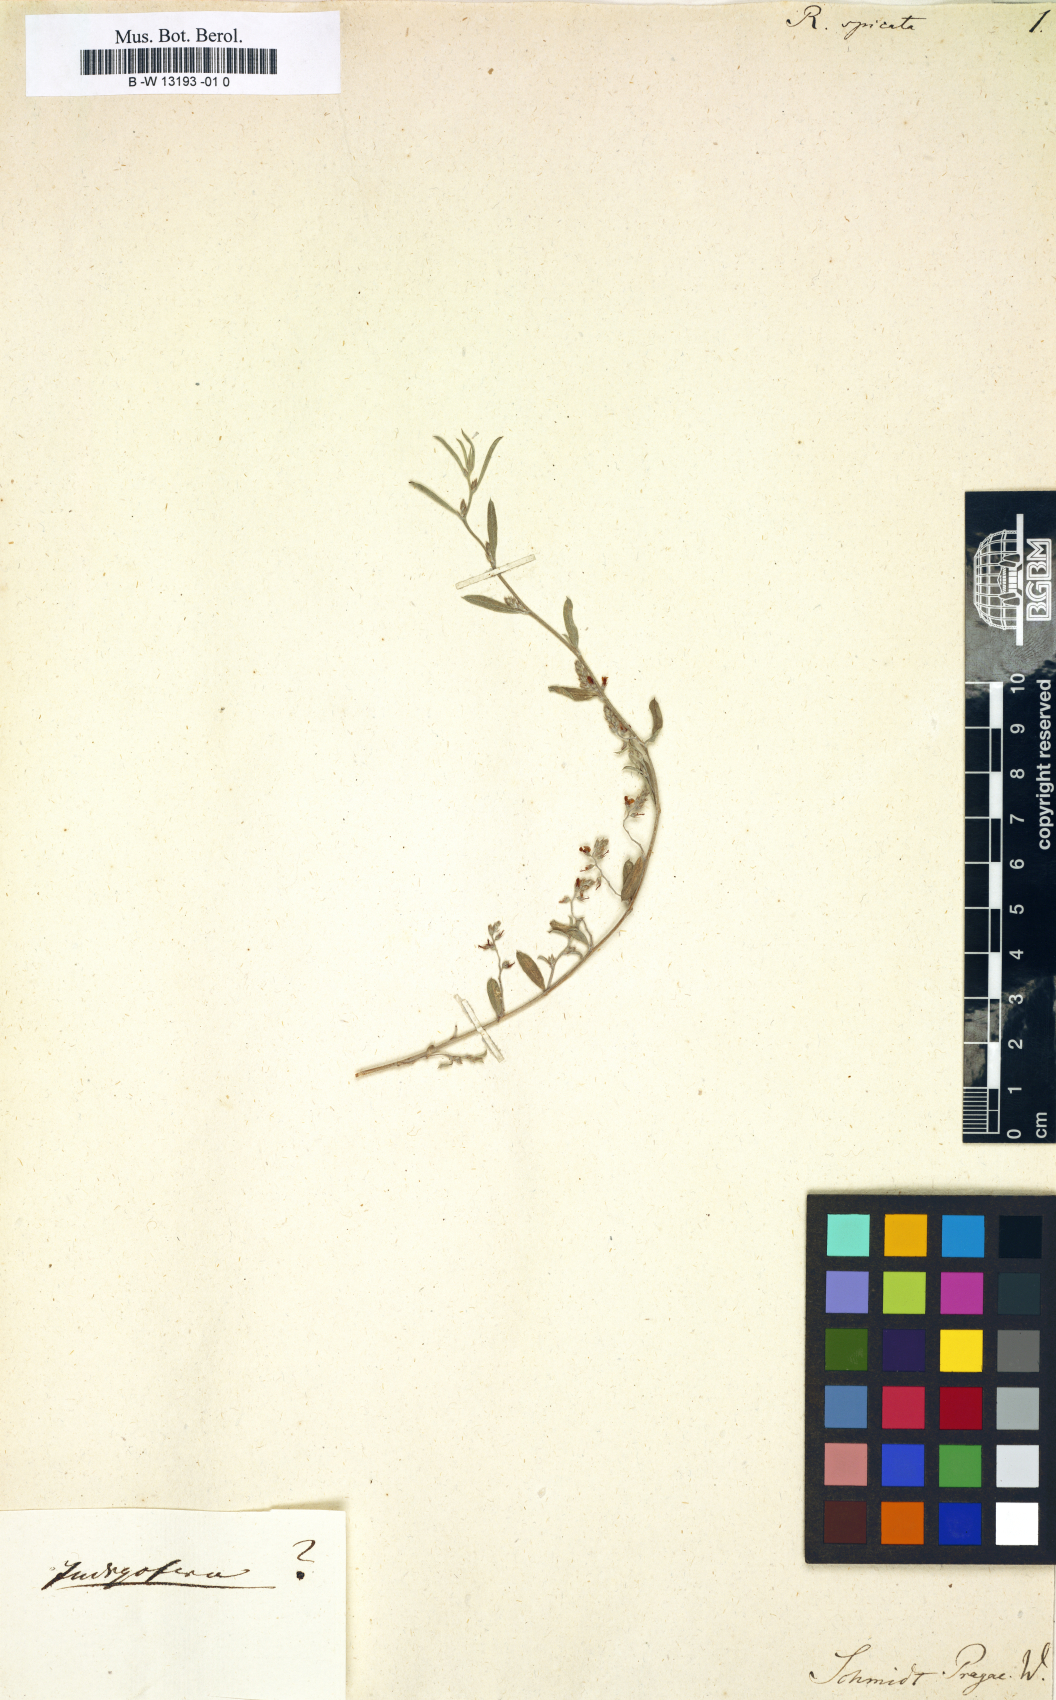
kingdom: Plantae
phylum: Tracheophyta
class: Magnoliopsida
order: Fabales
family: Fabaceae
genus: Rafnia
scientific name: Rafnia spicata
